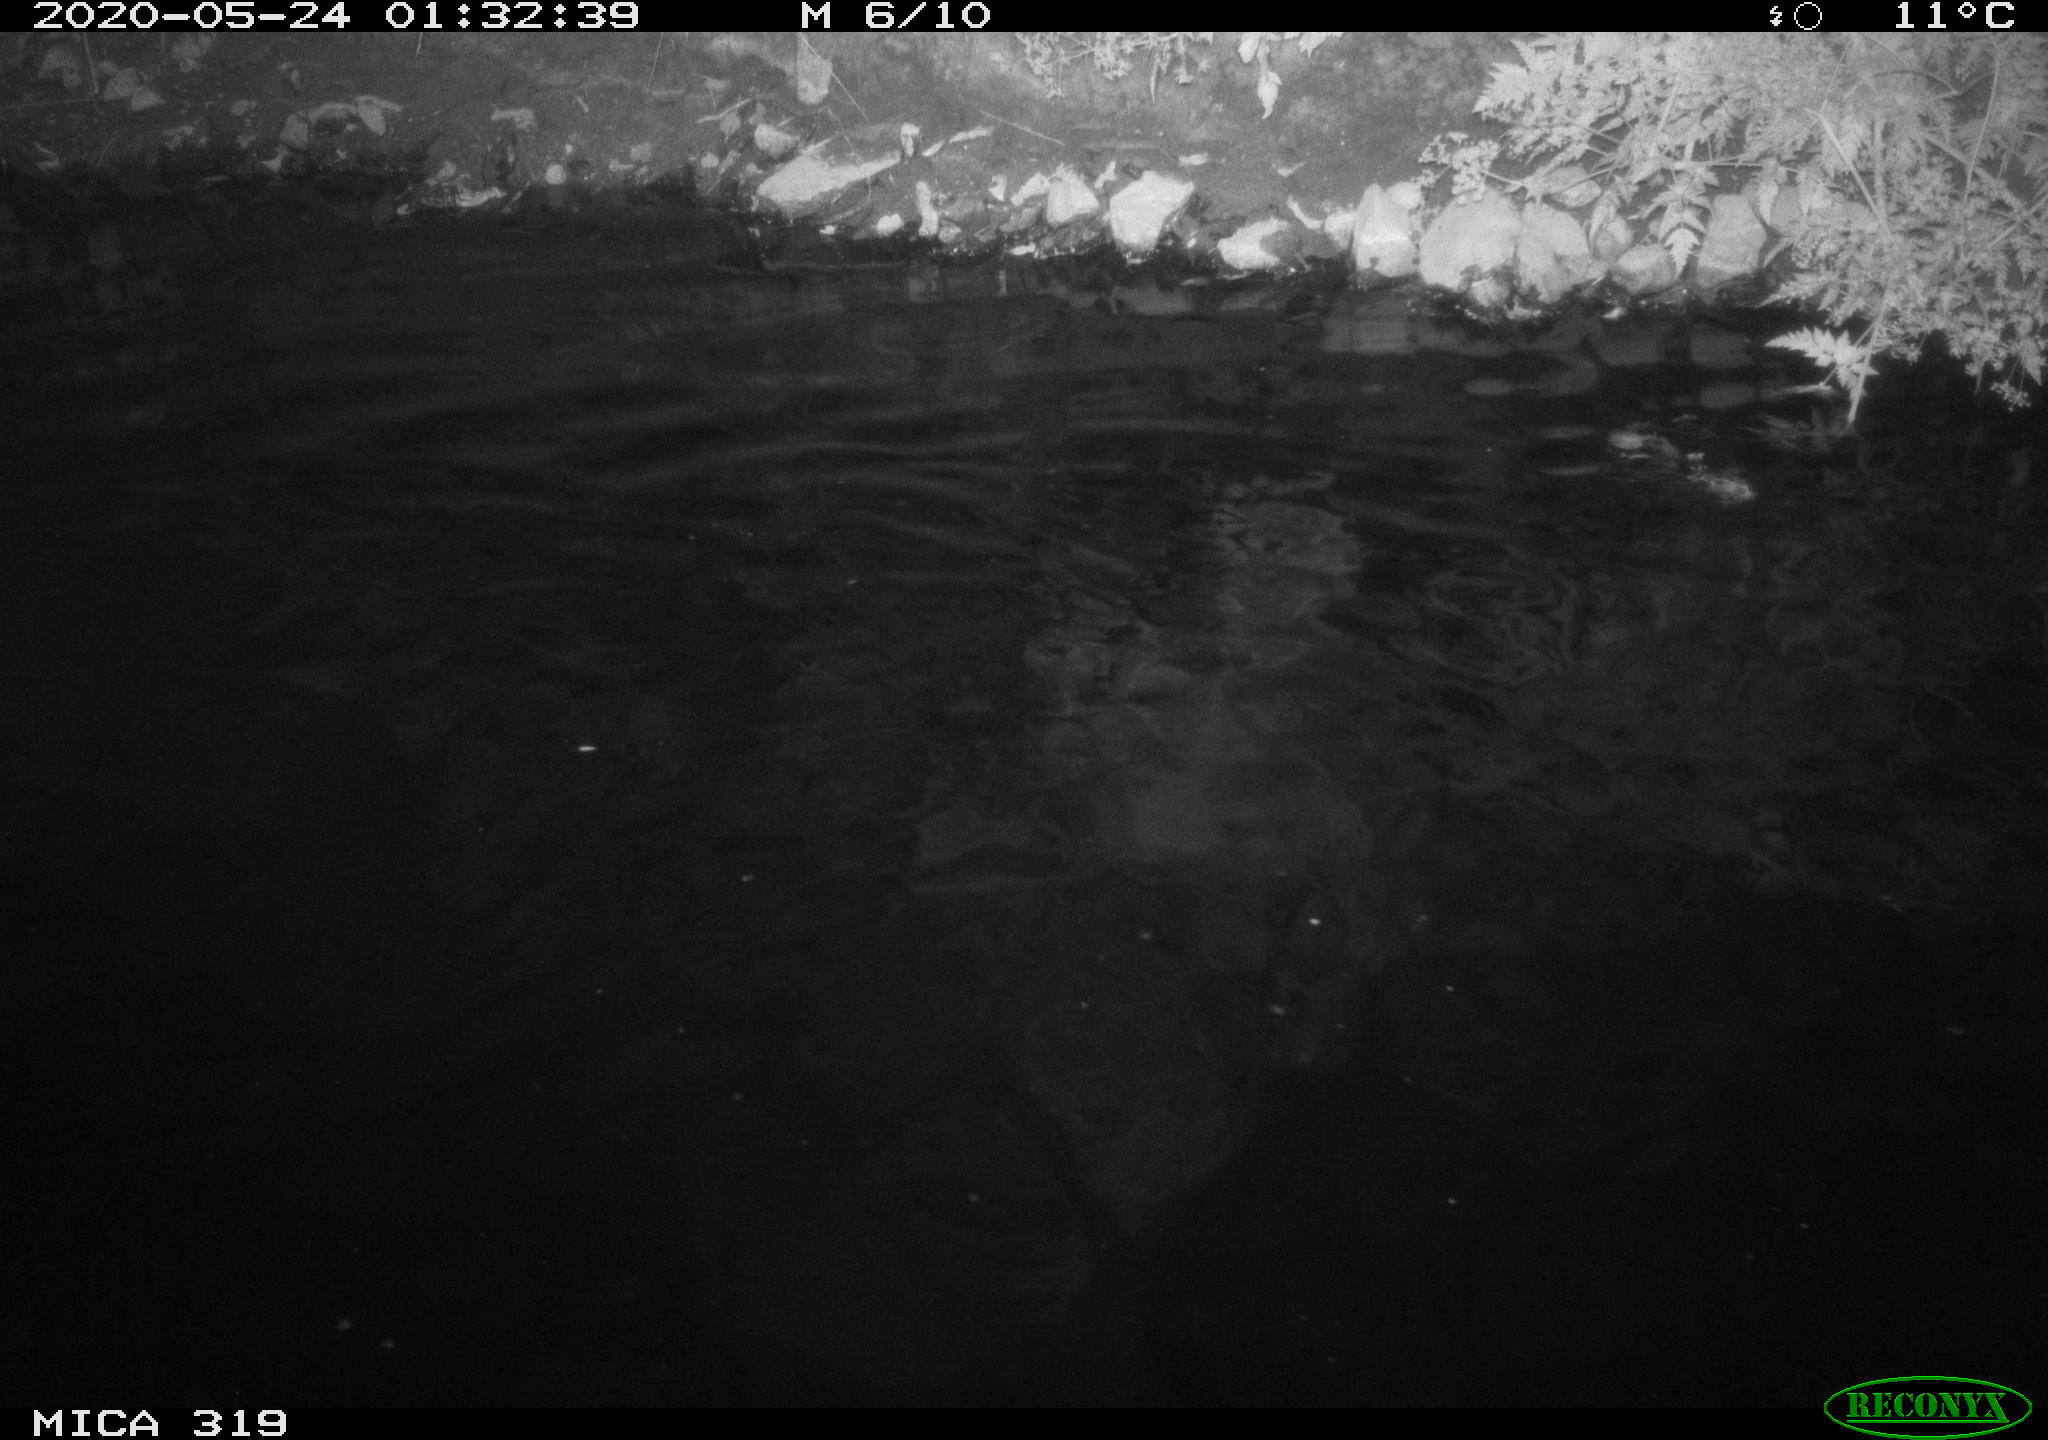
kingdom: Animalia
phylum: Chordata
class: Aves
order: Anseriformes
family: Anatidae
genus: Anas
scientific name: Anas platyrhynchos
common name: Mallard
